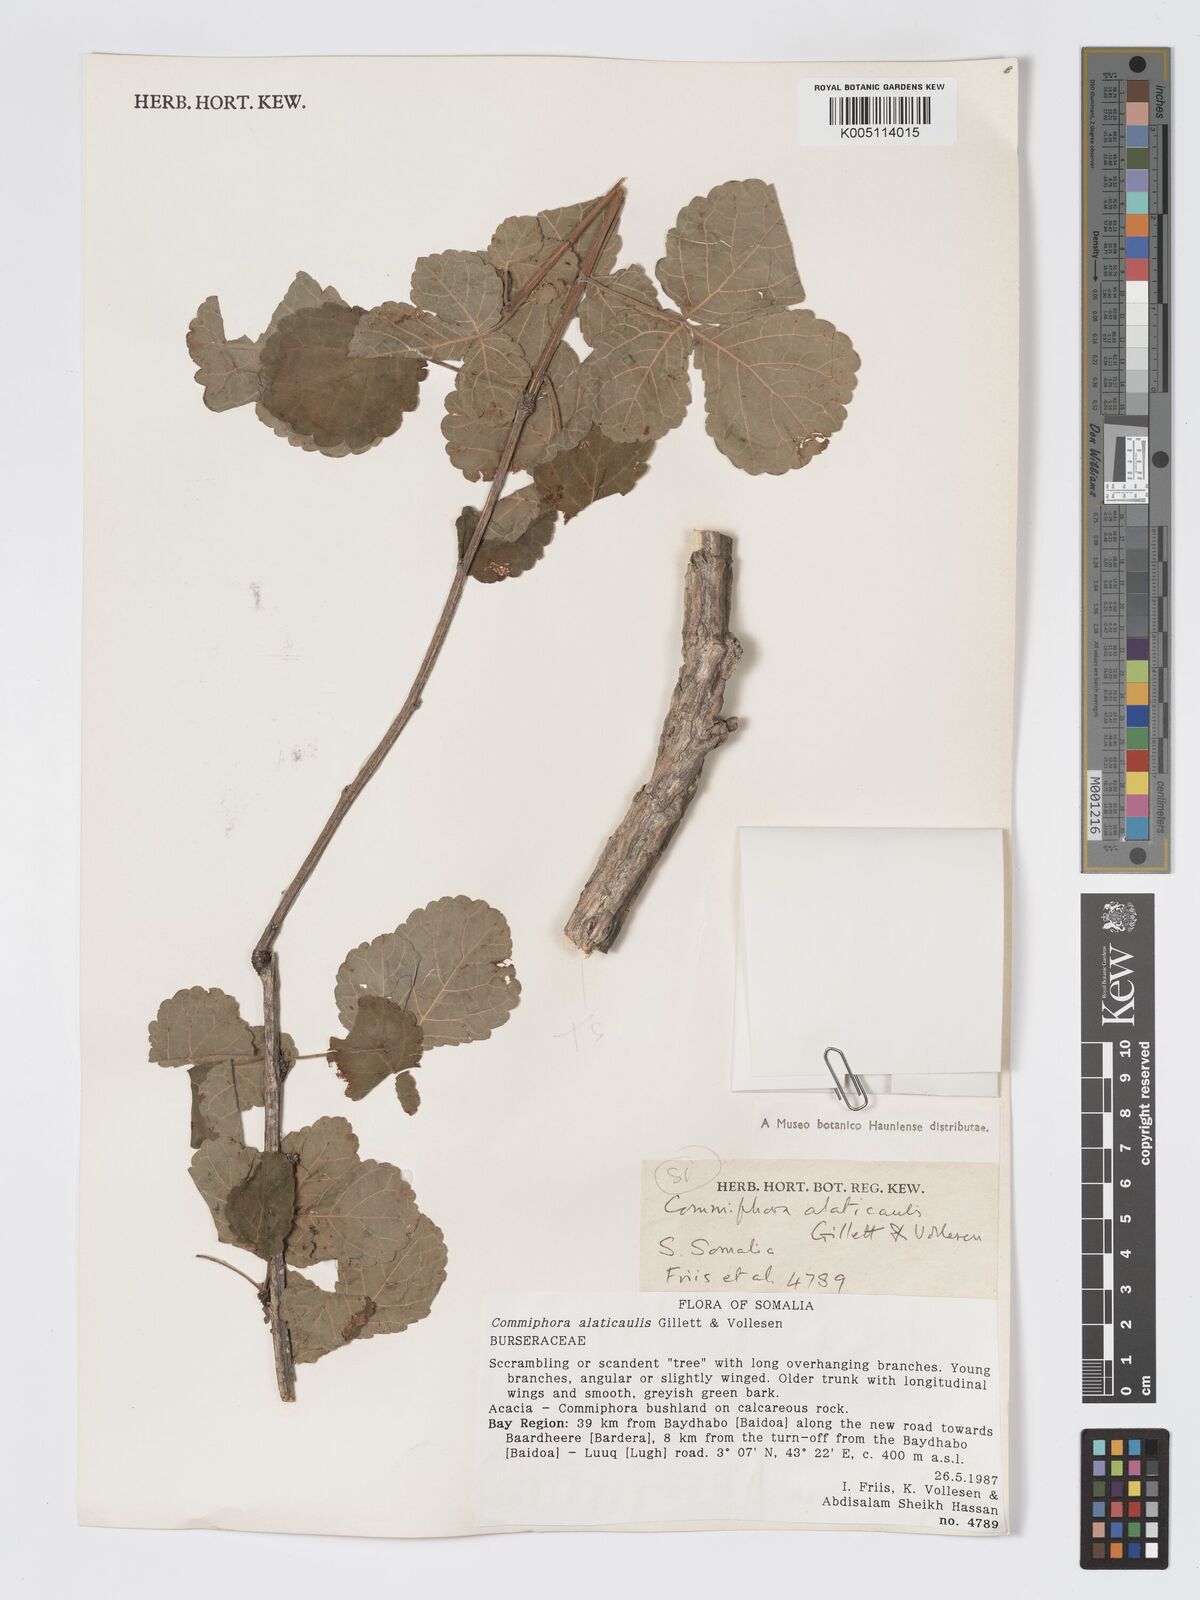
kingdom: Plantae
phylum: Tracheophyta
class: Magnoliopsida
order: Sapindales
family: Burseraceae
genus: Commiphora
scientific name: Commiphora alaticaulis
